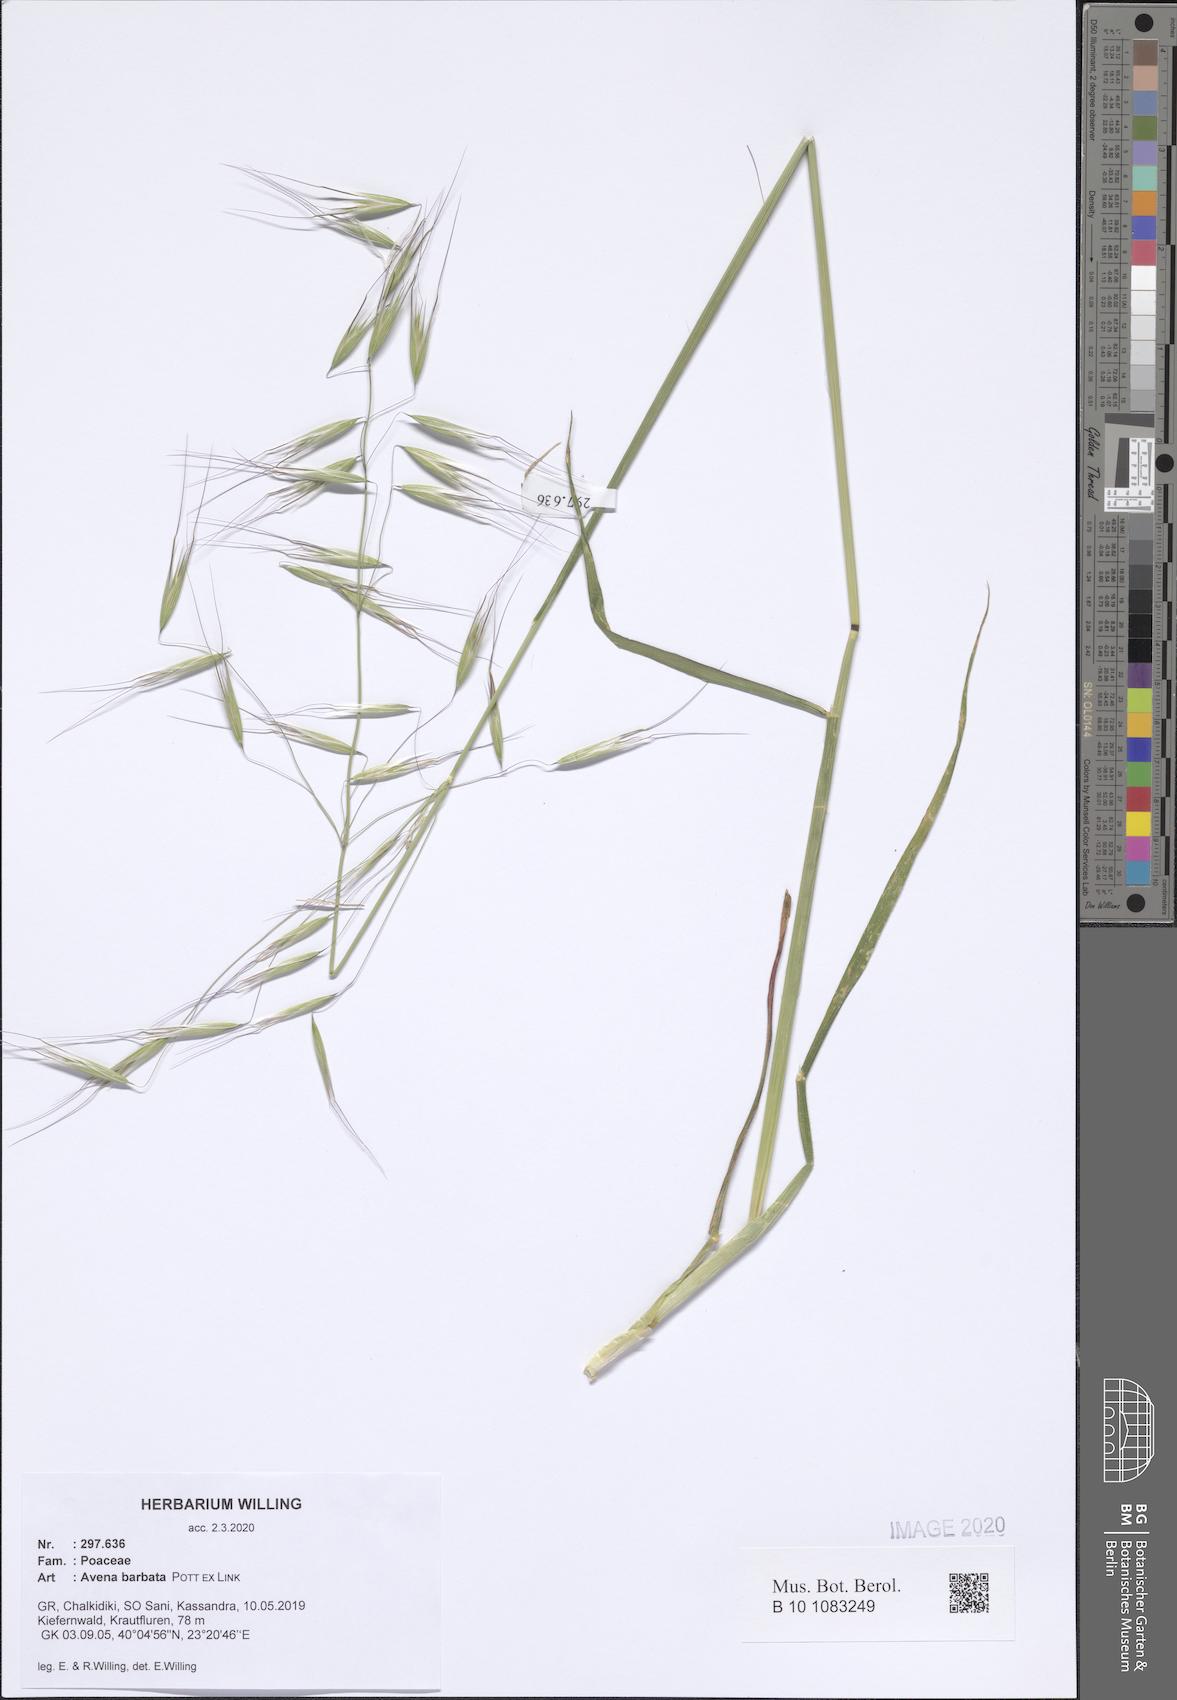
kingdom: Plantae
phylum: Tracheophyta
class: Liliopsida
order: Poales
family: Poaceae
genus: Avena
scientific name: Avena barbata
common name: Slender oat
